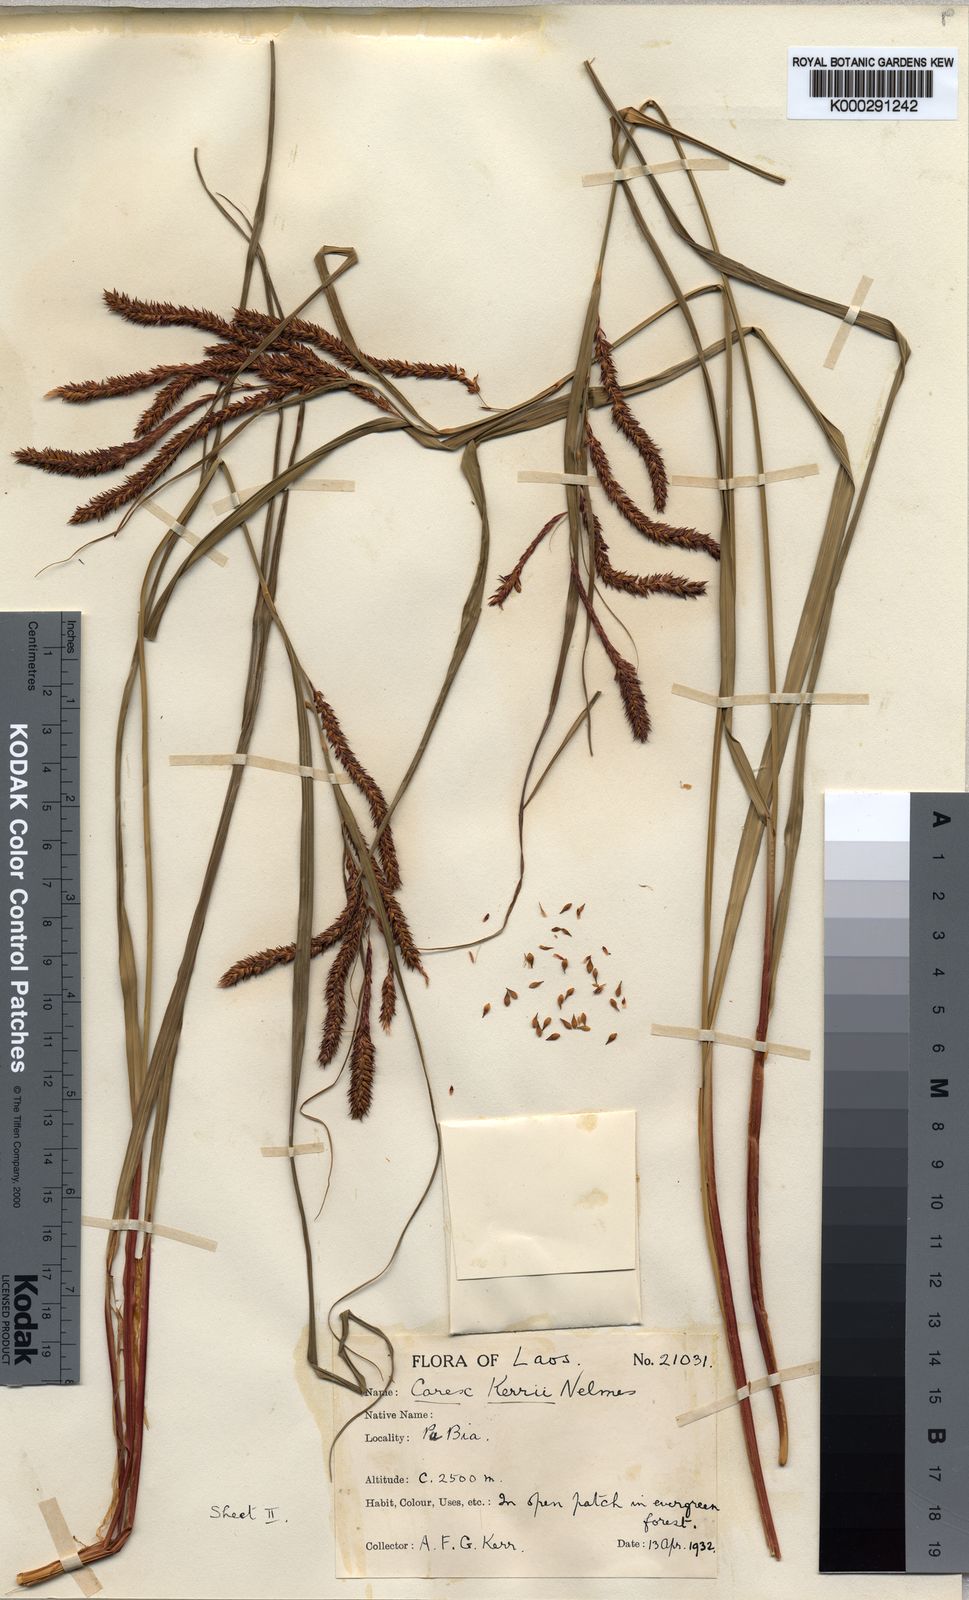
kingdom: Plantae
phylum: Tracheophyta
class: Liliopsida
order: Poales
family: Cyperaceae
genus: Carex
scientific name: Carex teres
